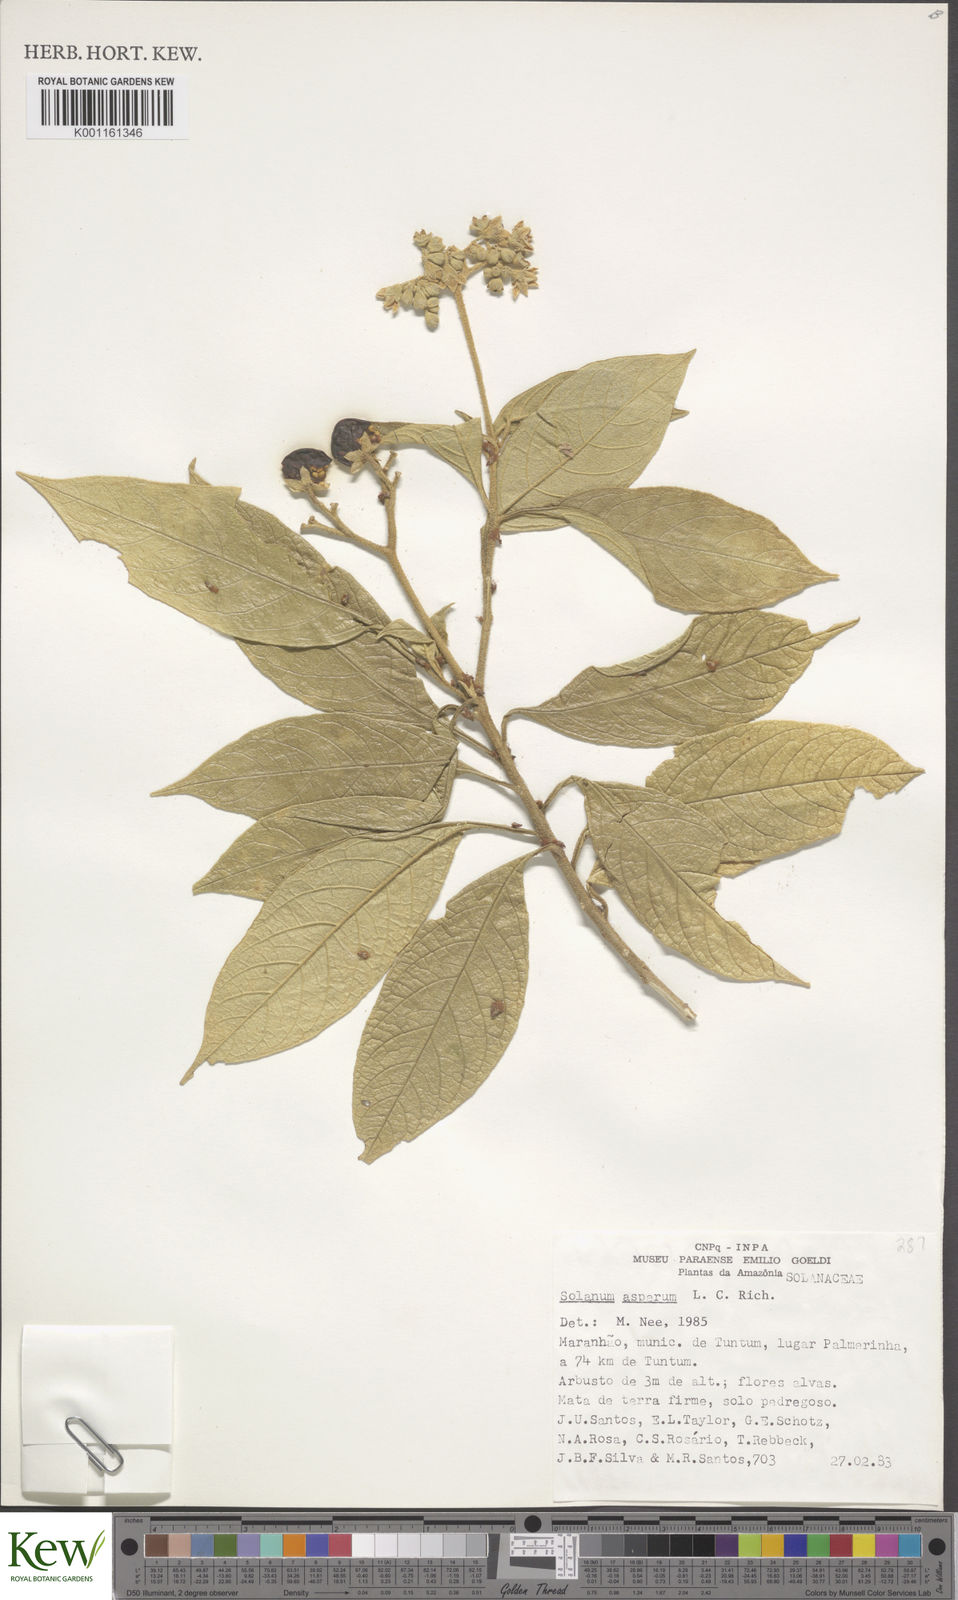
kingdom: Plantae
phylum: Tracheophyta
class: Magnoliopsida
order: Solanales
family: Solanaceae
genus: Solanum
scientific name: Solanum asperum
